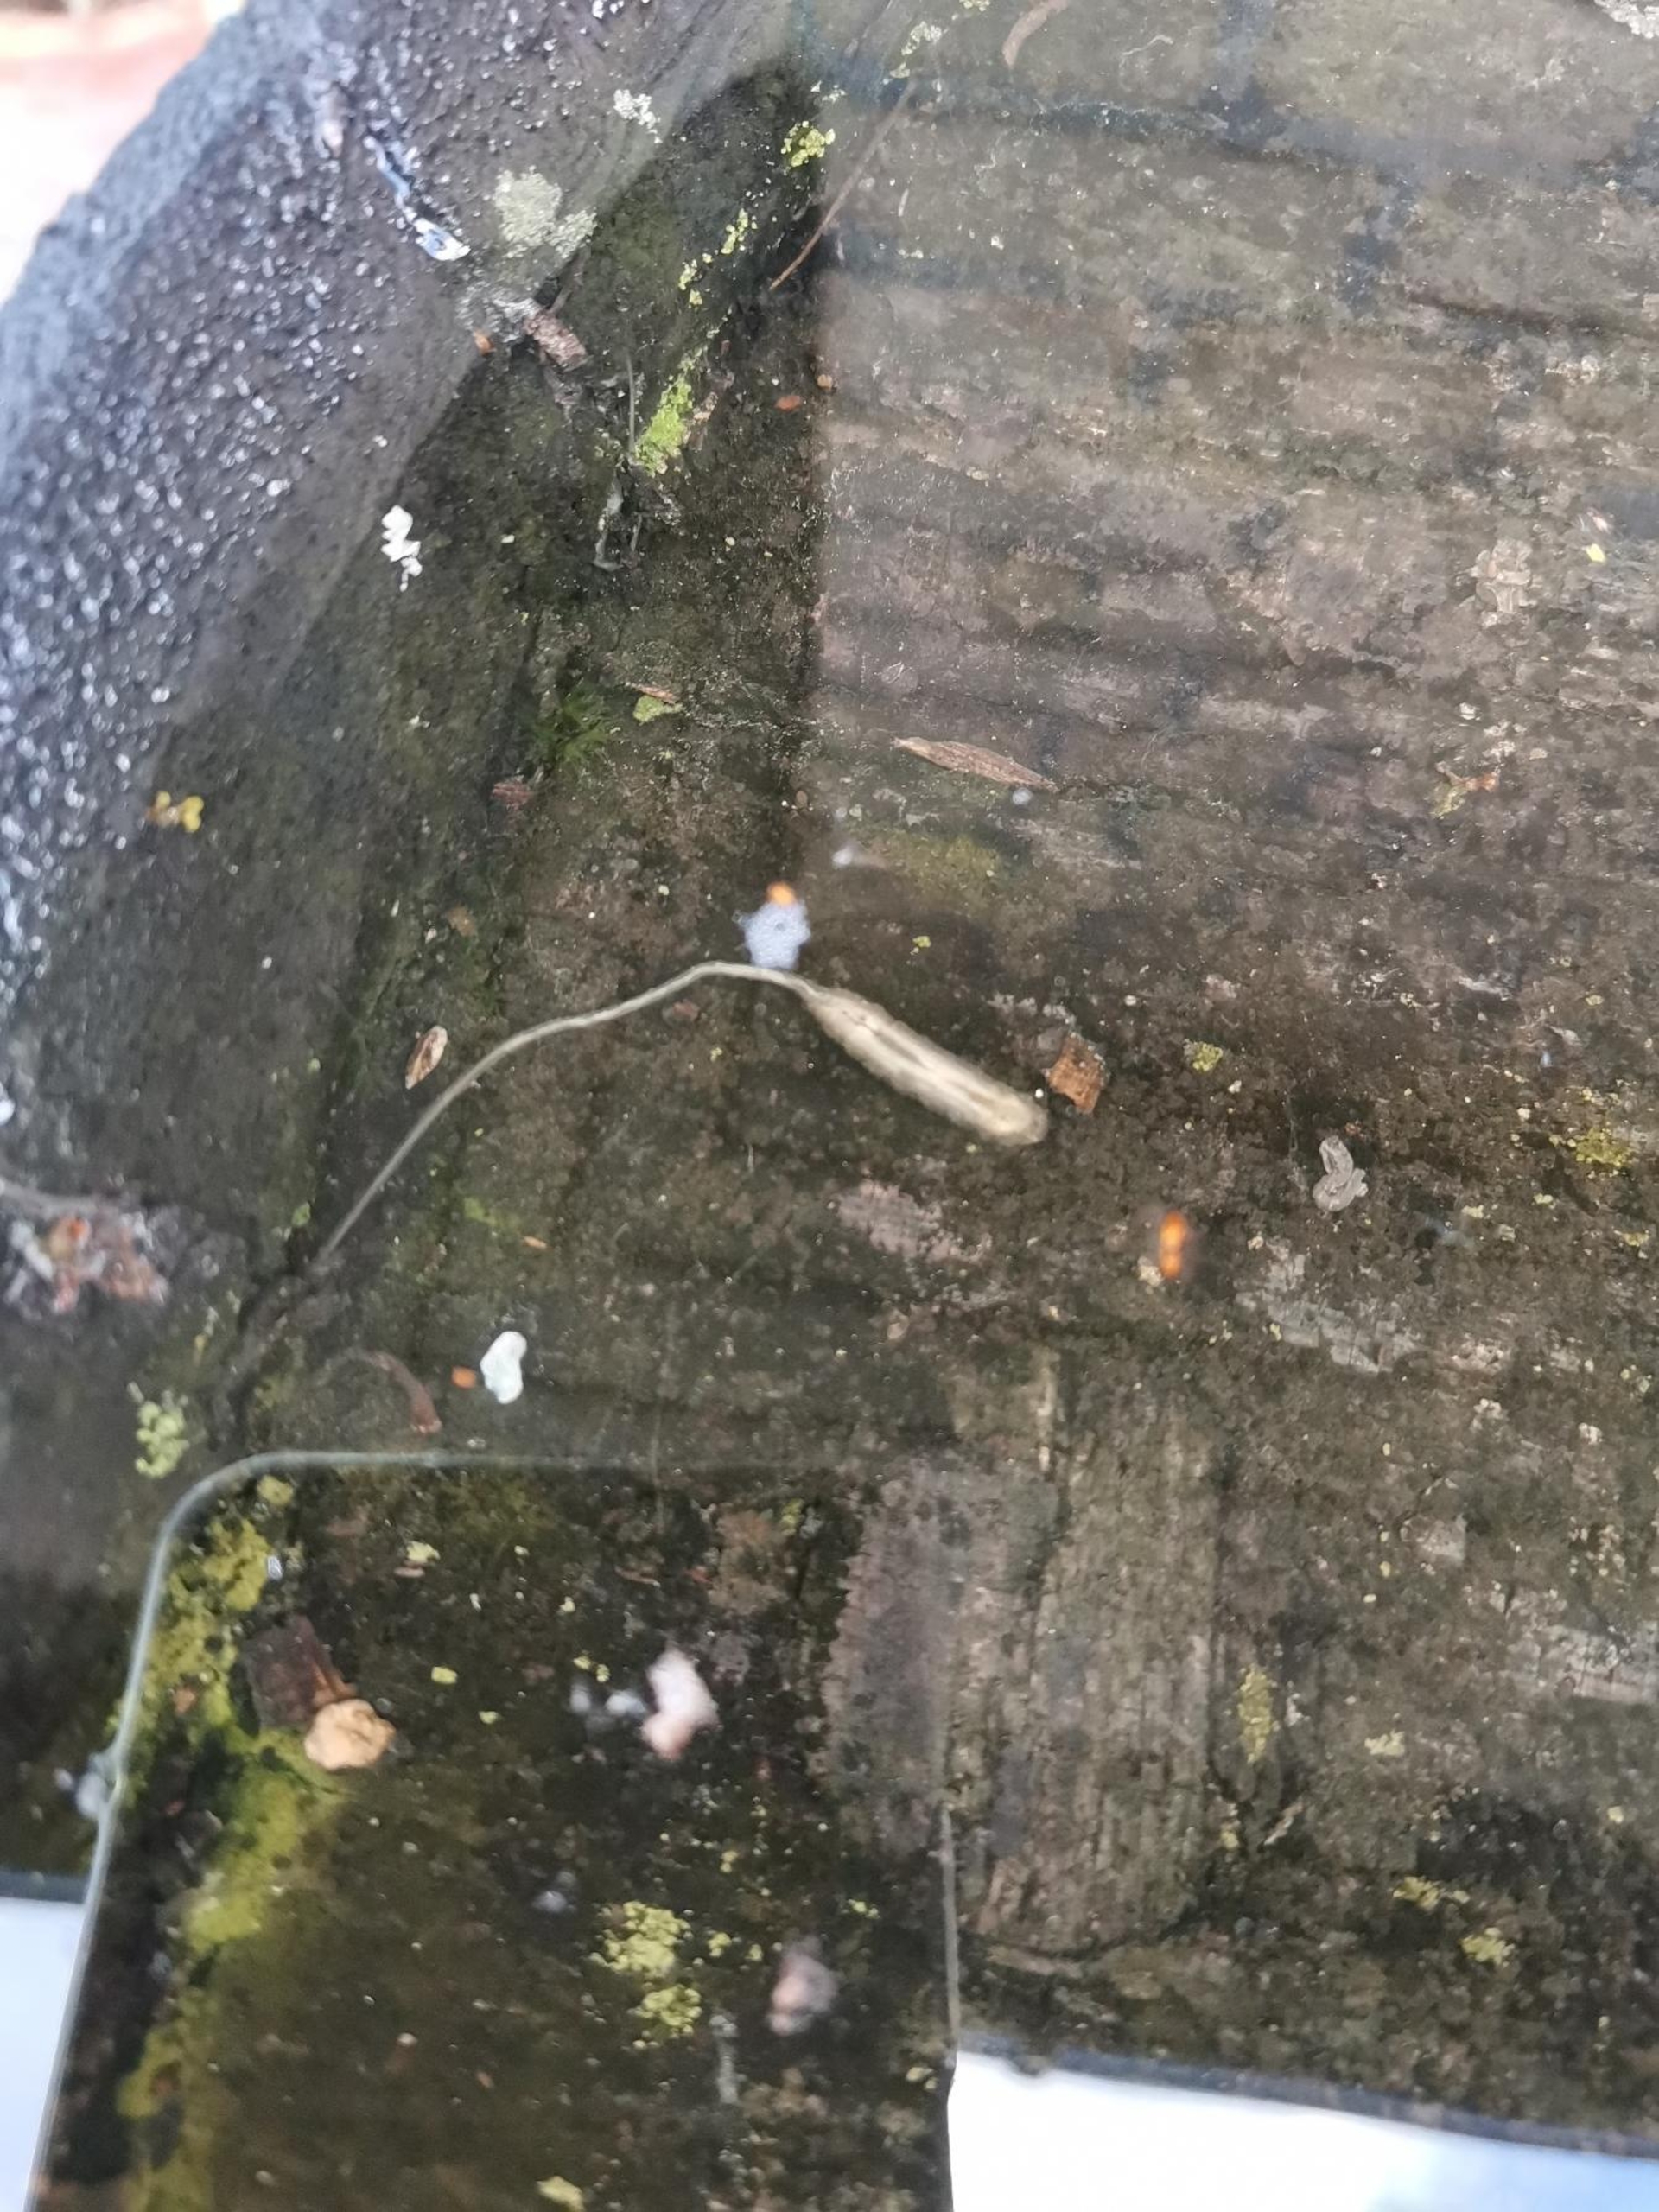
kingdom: Animalia
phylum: Arthropoda
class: Insecta
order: Diptera
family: Syrphidae
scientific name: Syrphidae
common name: Svirrefluer
